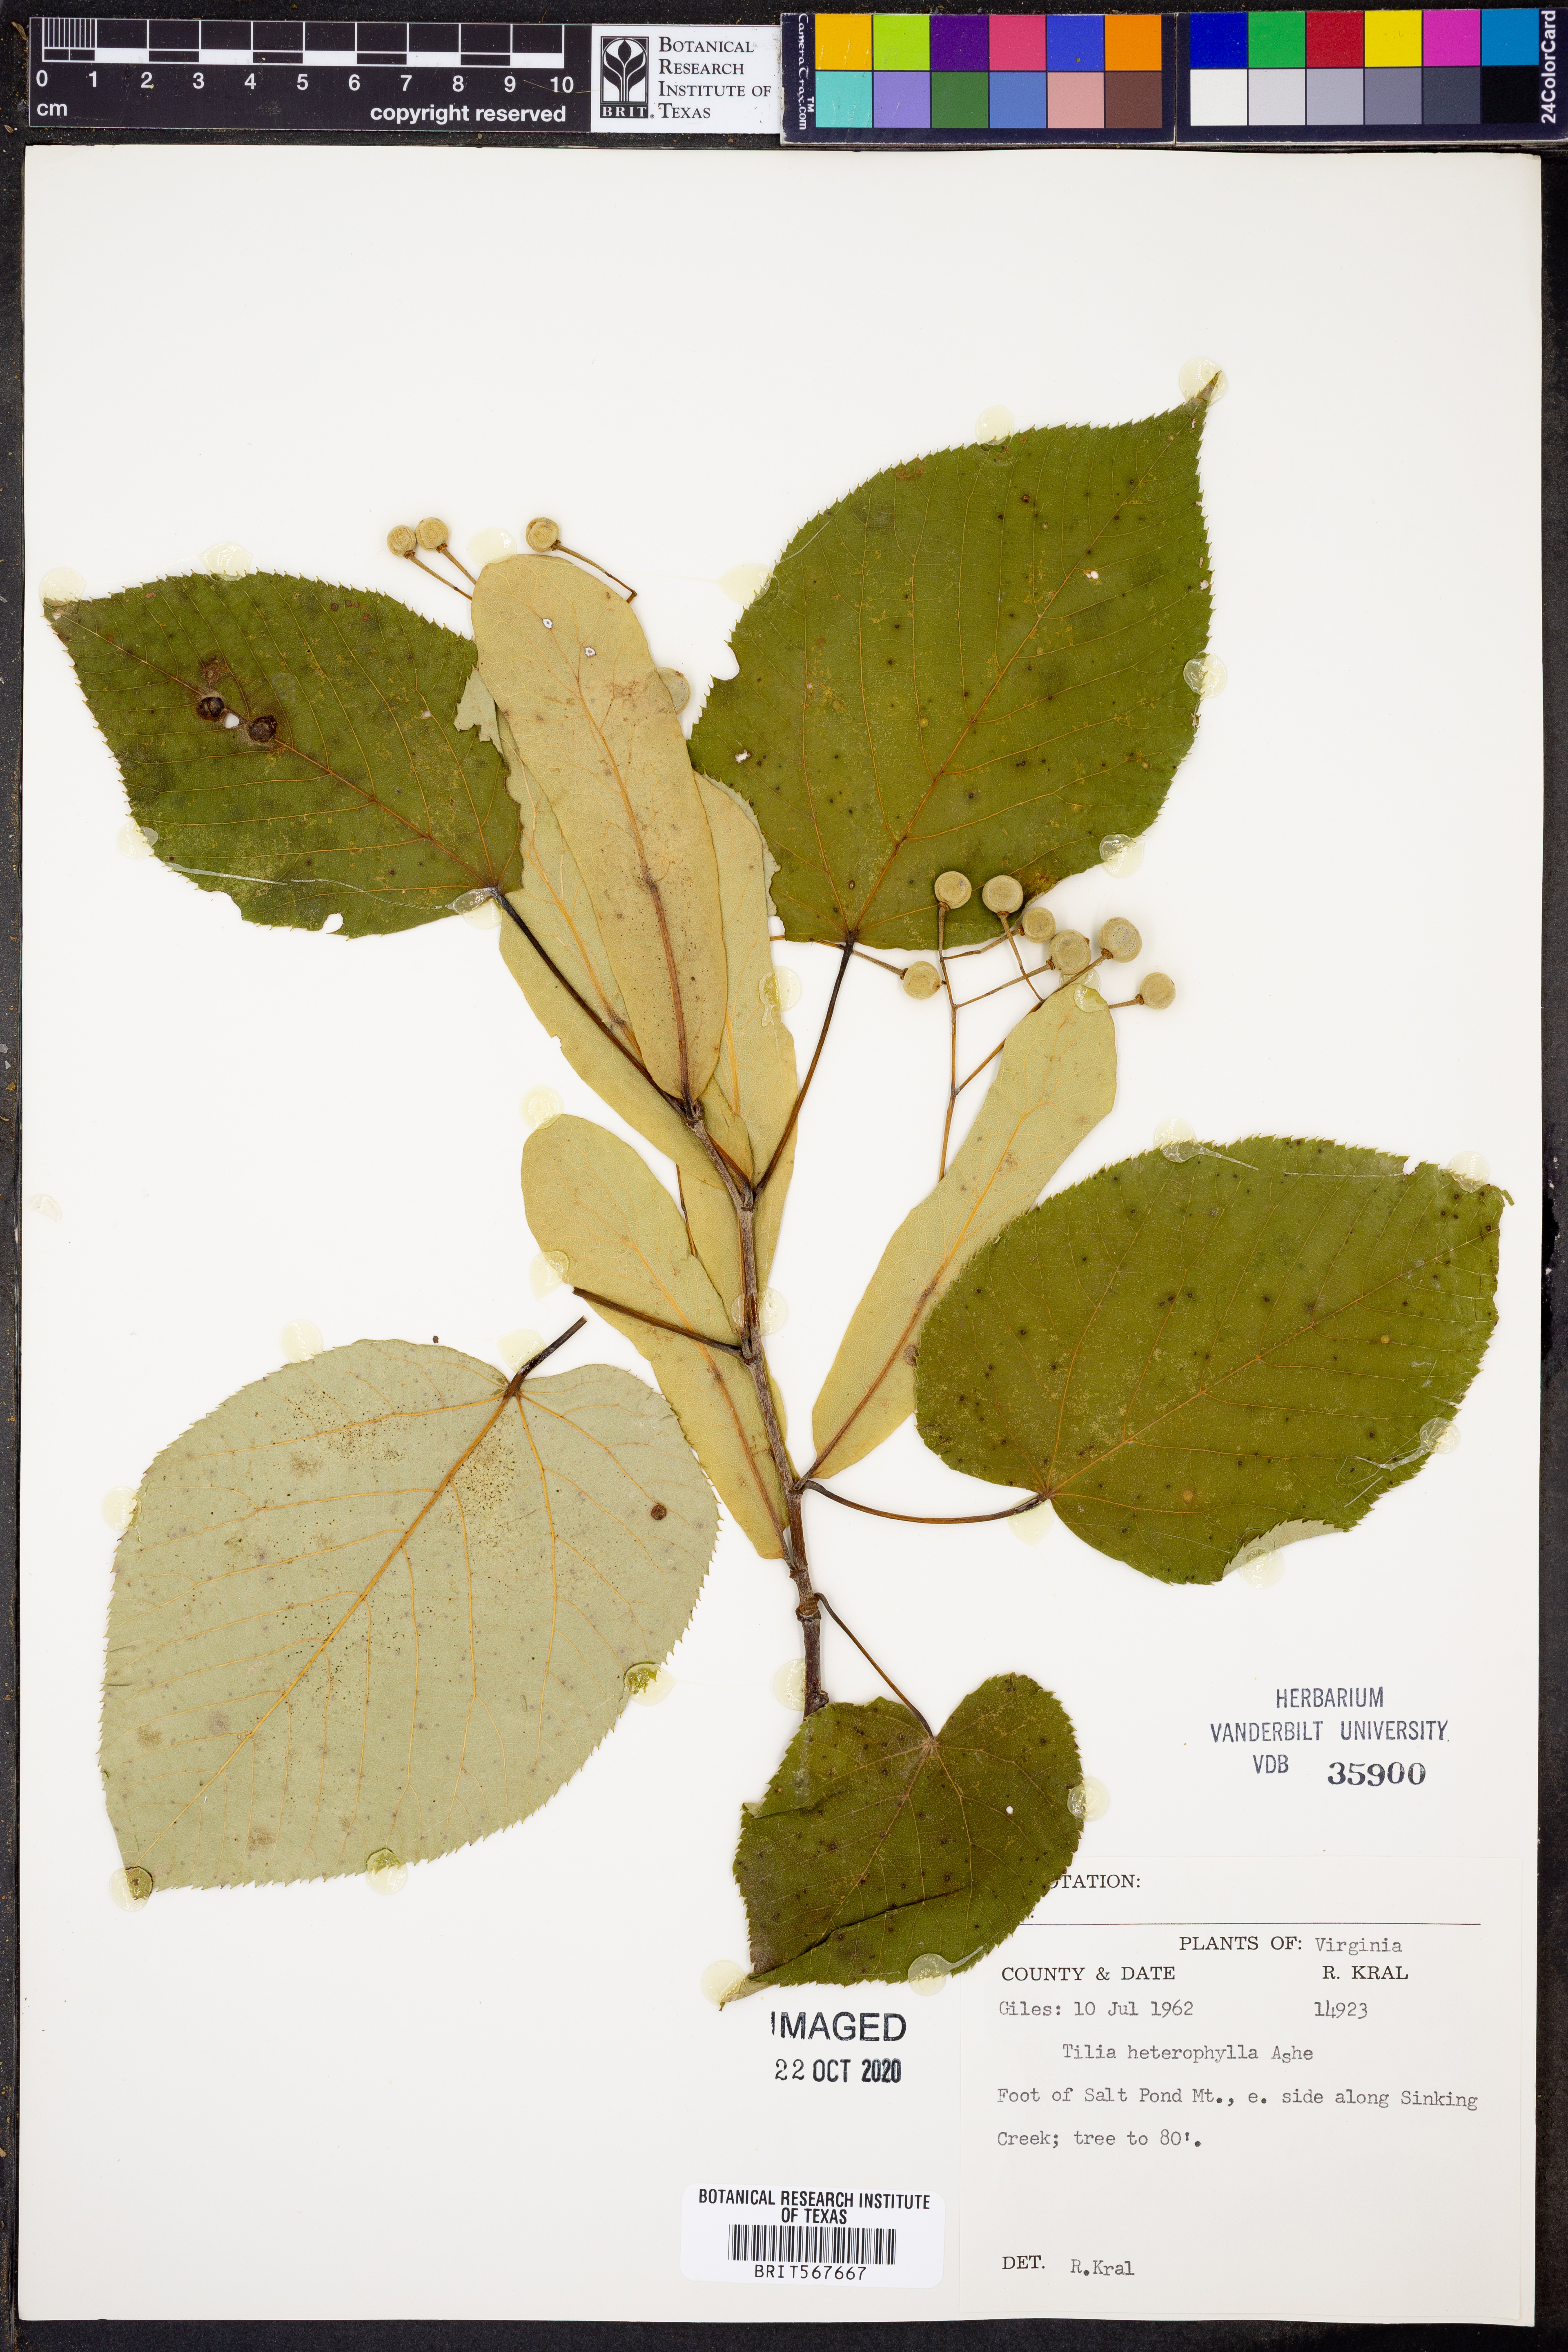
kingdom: Plantae
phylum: Tracheophyta
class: Magnoliopsida
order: Malvales
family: Malvaceae
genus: Tilia
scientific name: Tilia americana
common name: Basswood
